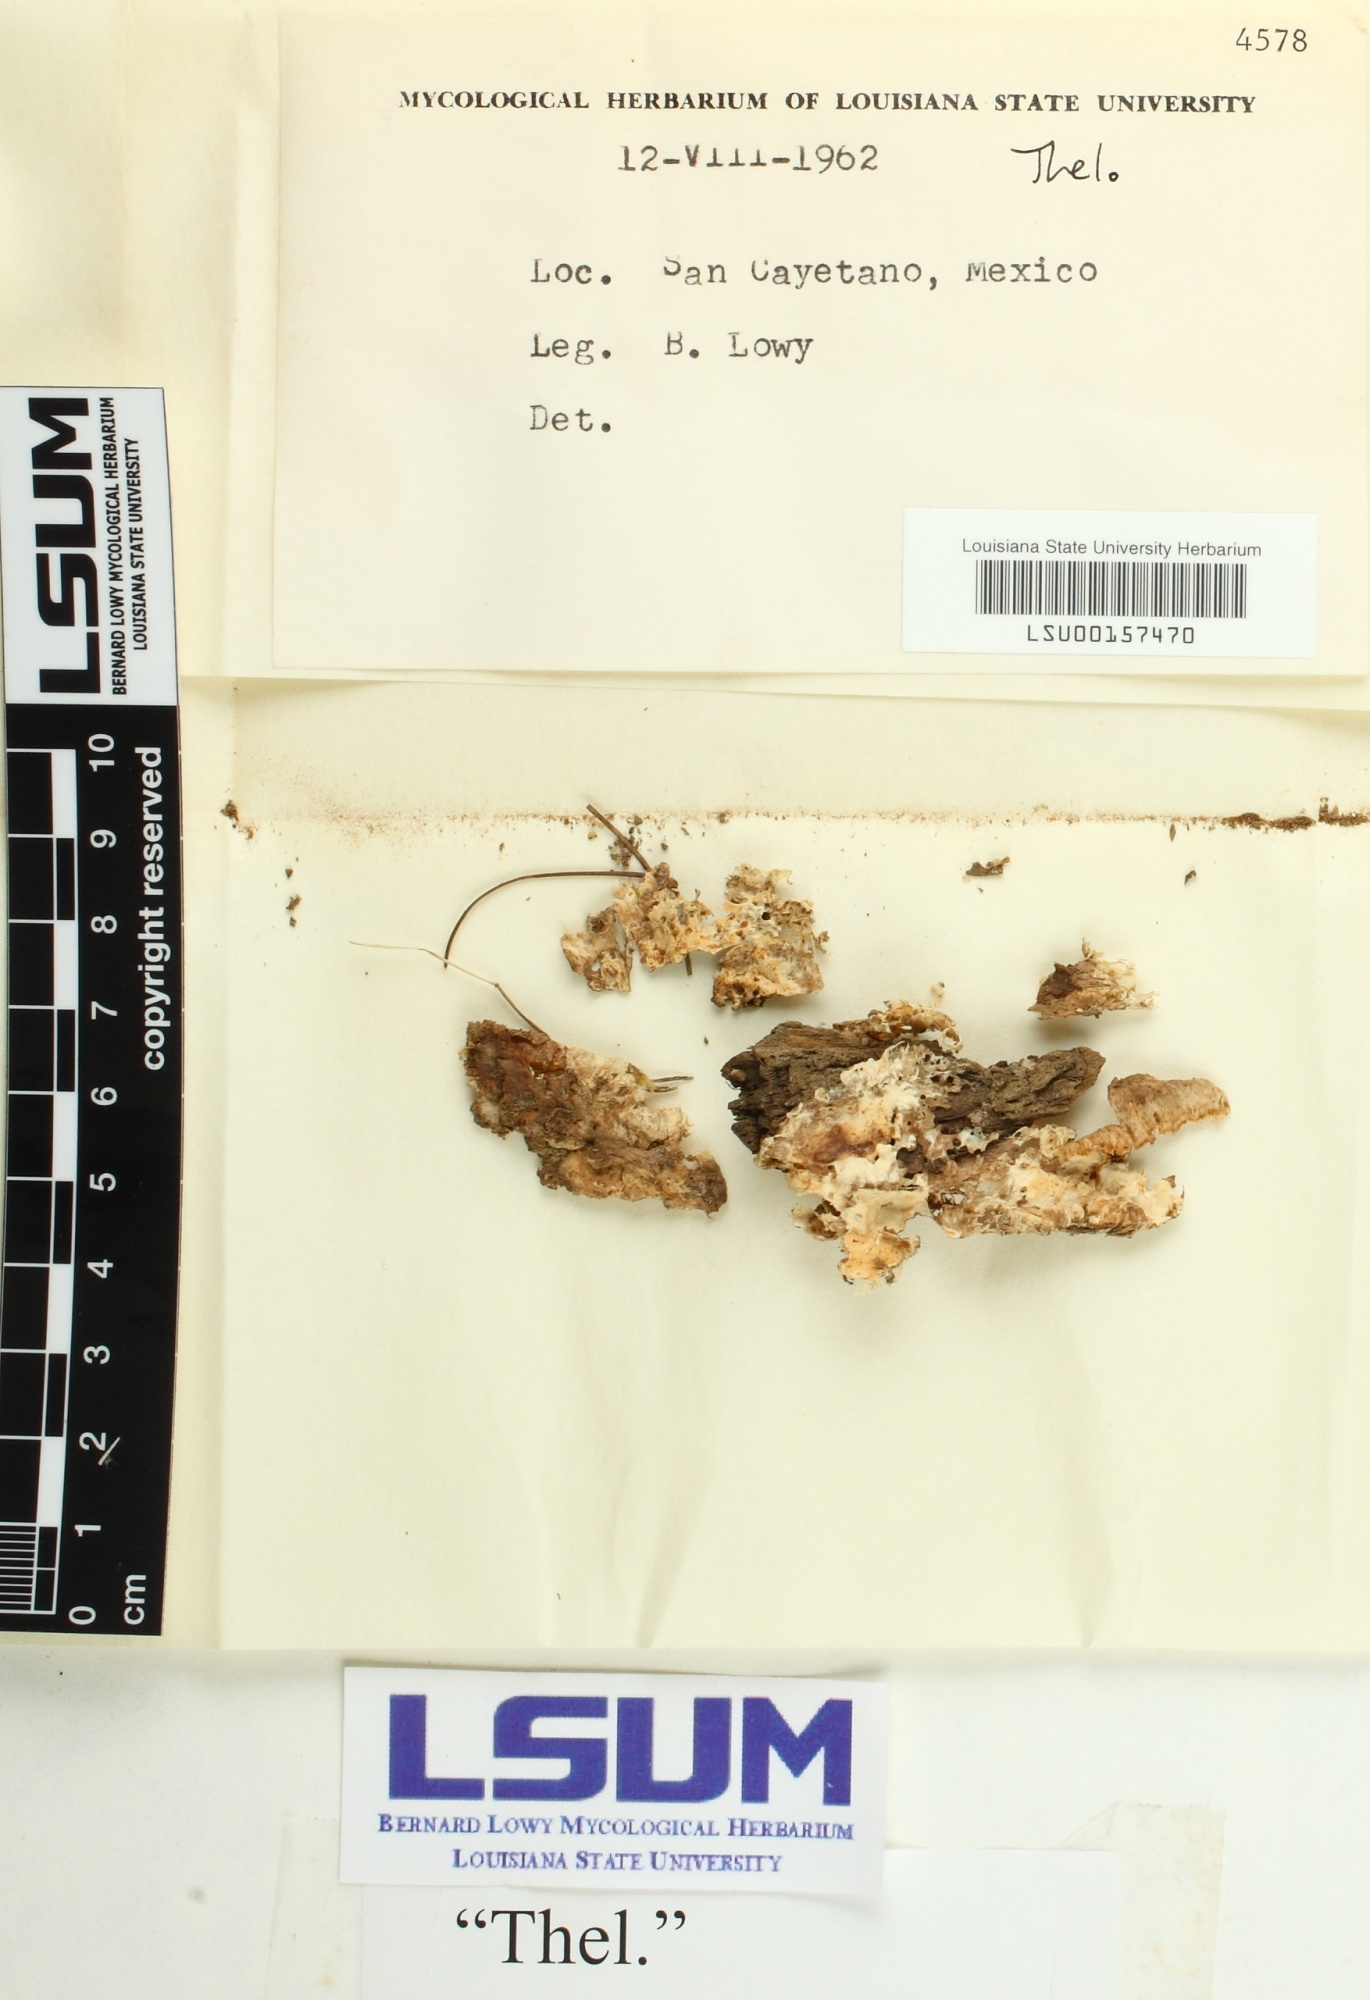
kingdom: Fungi
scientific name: Fungi
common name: Fungi
